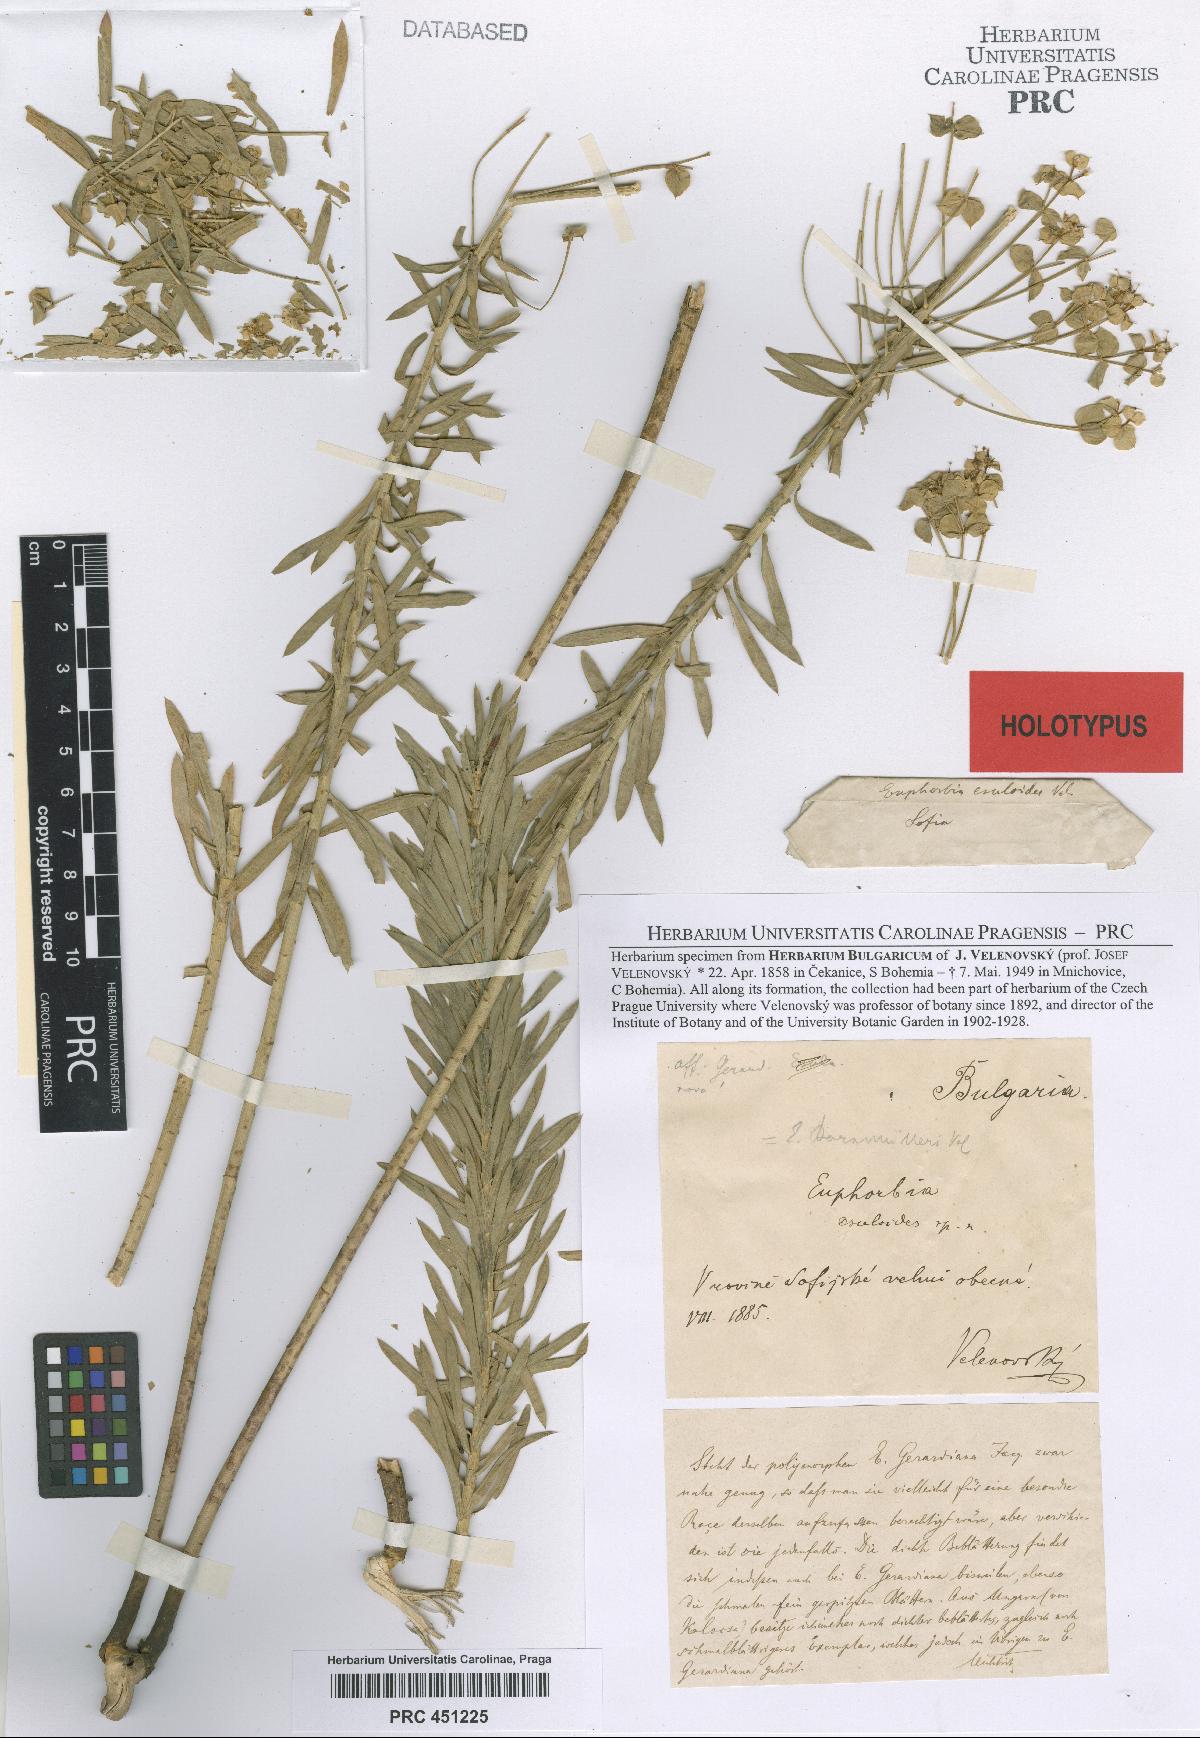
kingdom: Plantae
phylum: Tracheophyta
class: Magnoliopsida
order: Malpighiales
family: Euphorbiaceae
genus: Euphorbia
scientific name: Euphorbia seguieriana
